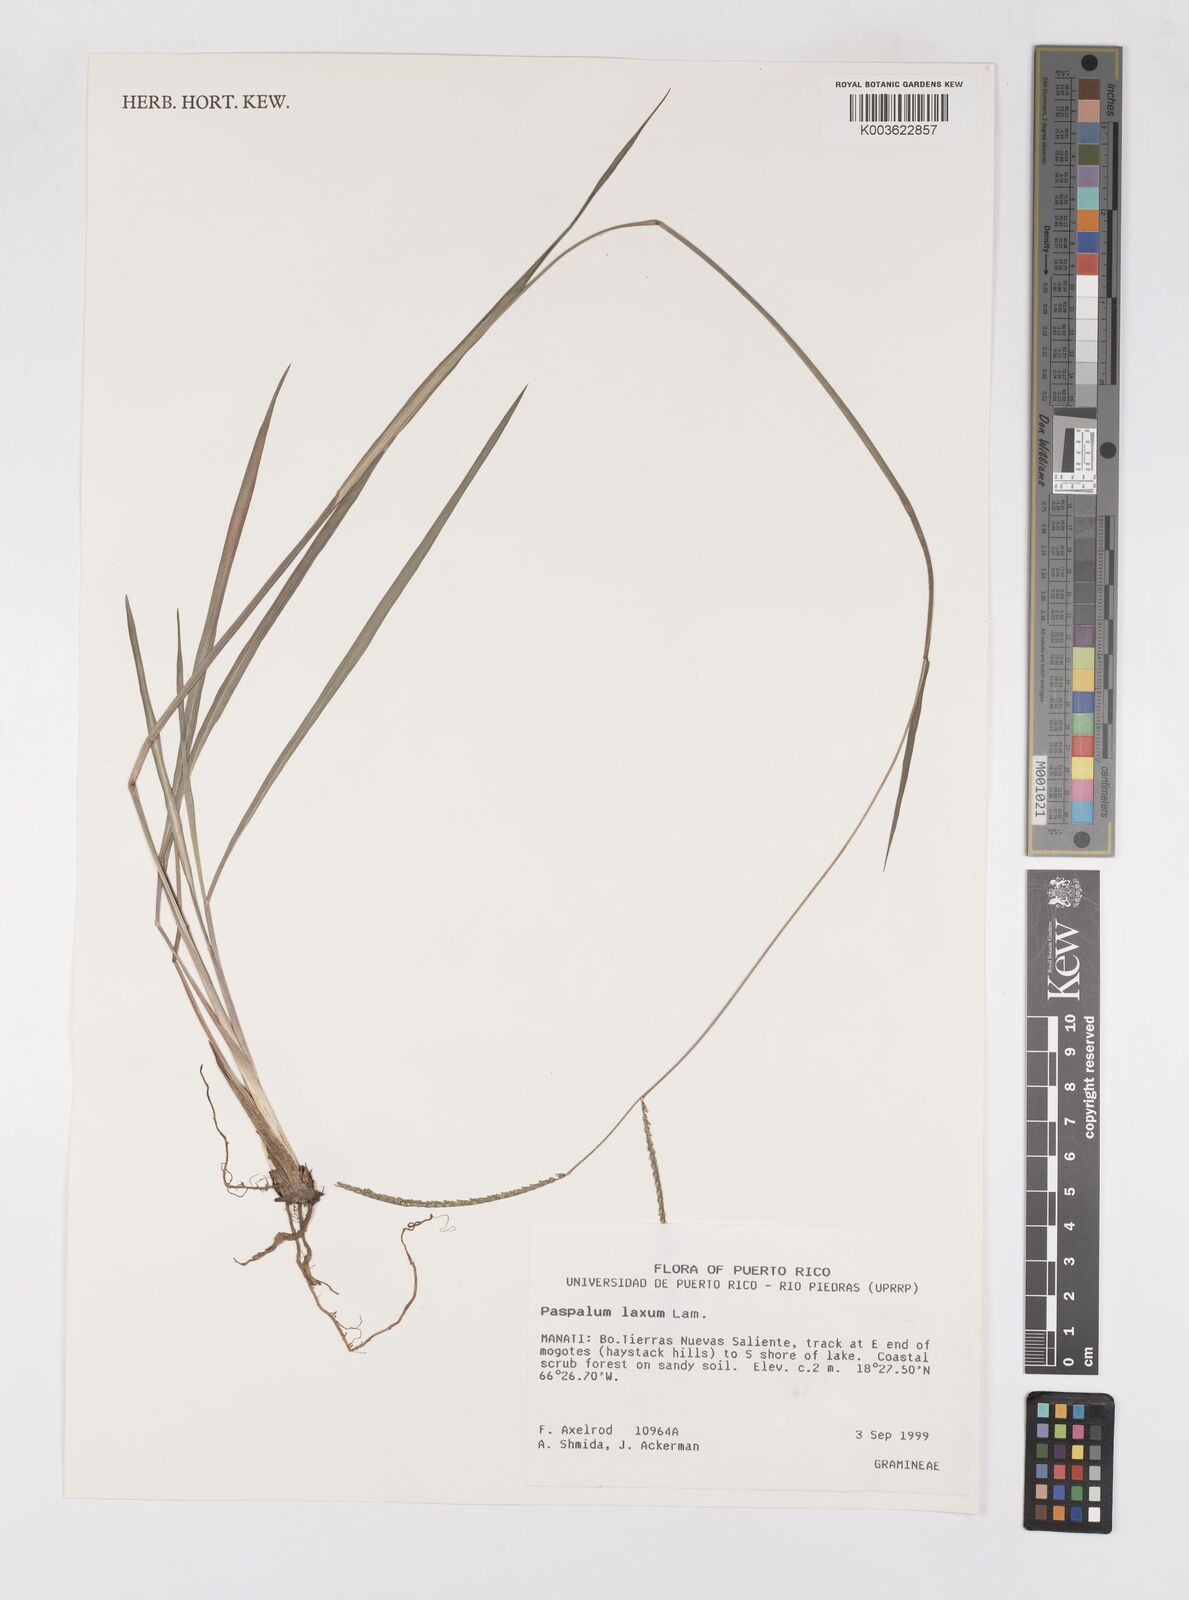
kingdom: Plantae
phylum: Tracheophyta
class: Liliopsida
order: Poales
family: Poaceae
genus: Paspalum
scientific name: Paspalum laxum
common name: Coconut paspalum
